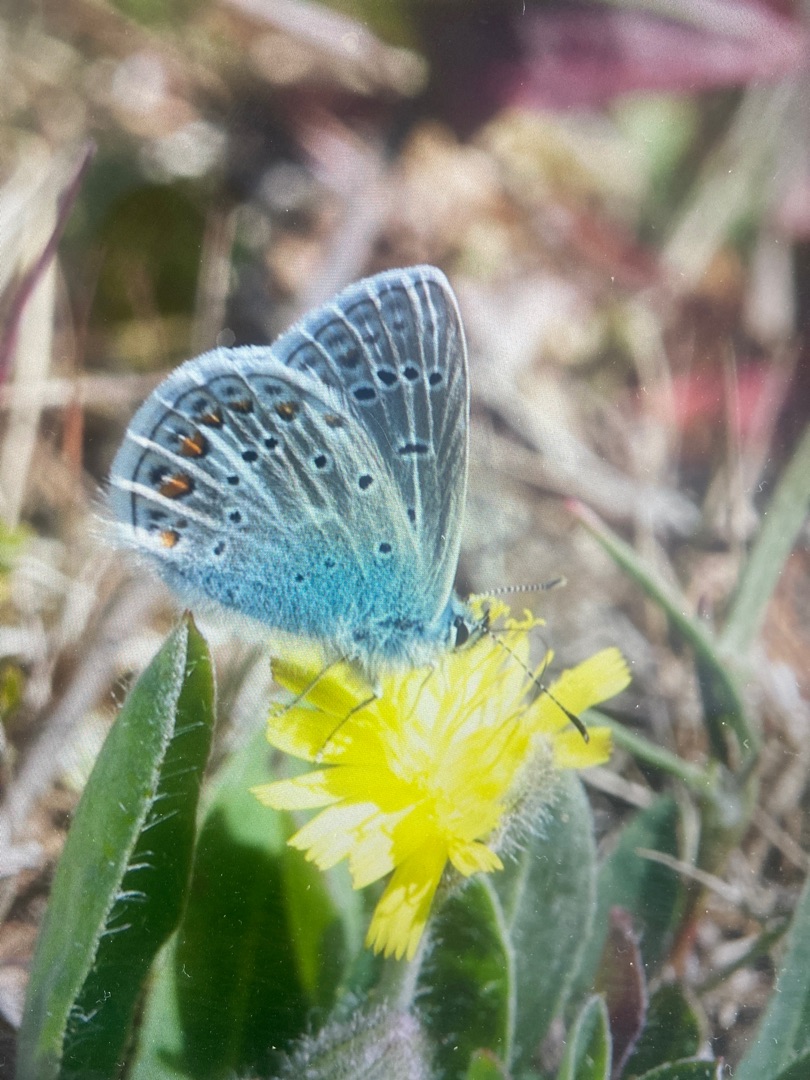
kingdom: Animalia
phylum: Arthropoda
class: Insecta
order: Lepidoptera
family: Lycaenidae
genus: Polyommatus
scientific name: Polyommatus icarus
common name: Almindelig blåfugl
